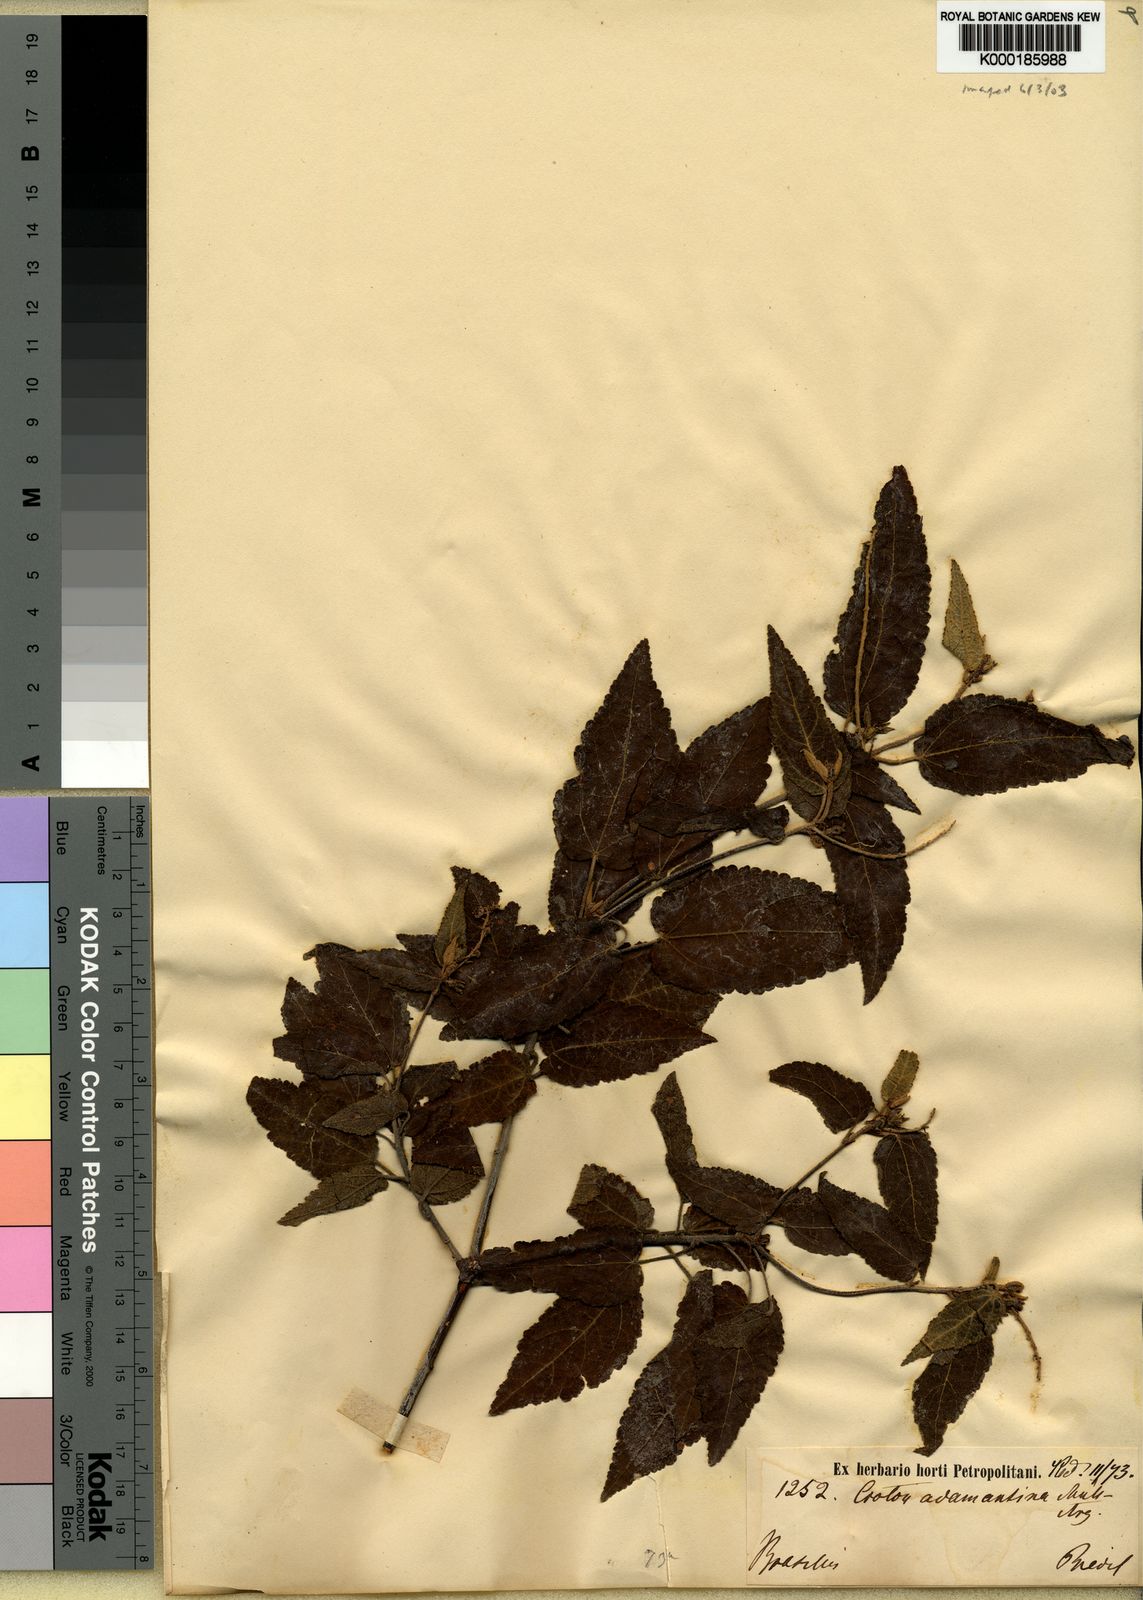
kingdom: Plantae
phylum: Tracheophyta
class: Magnoliopsida
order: Malpighiales
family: Euphorbiaceae
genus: Croton
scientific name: Croton
